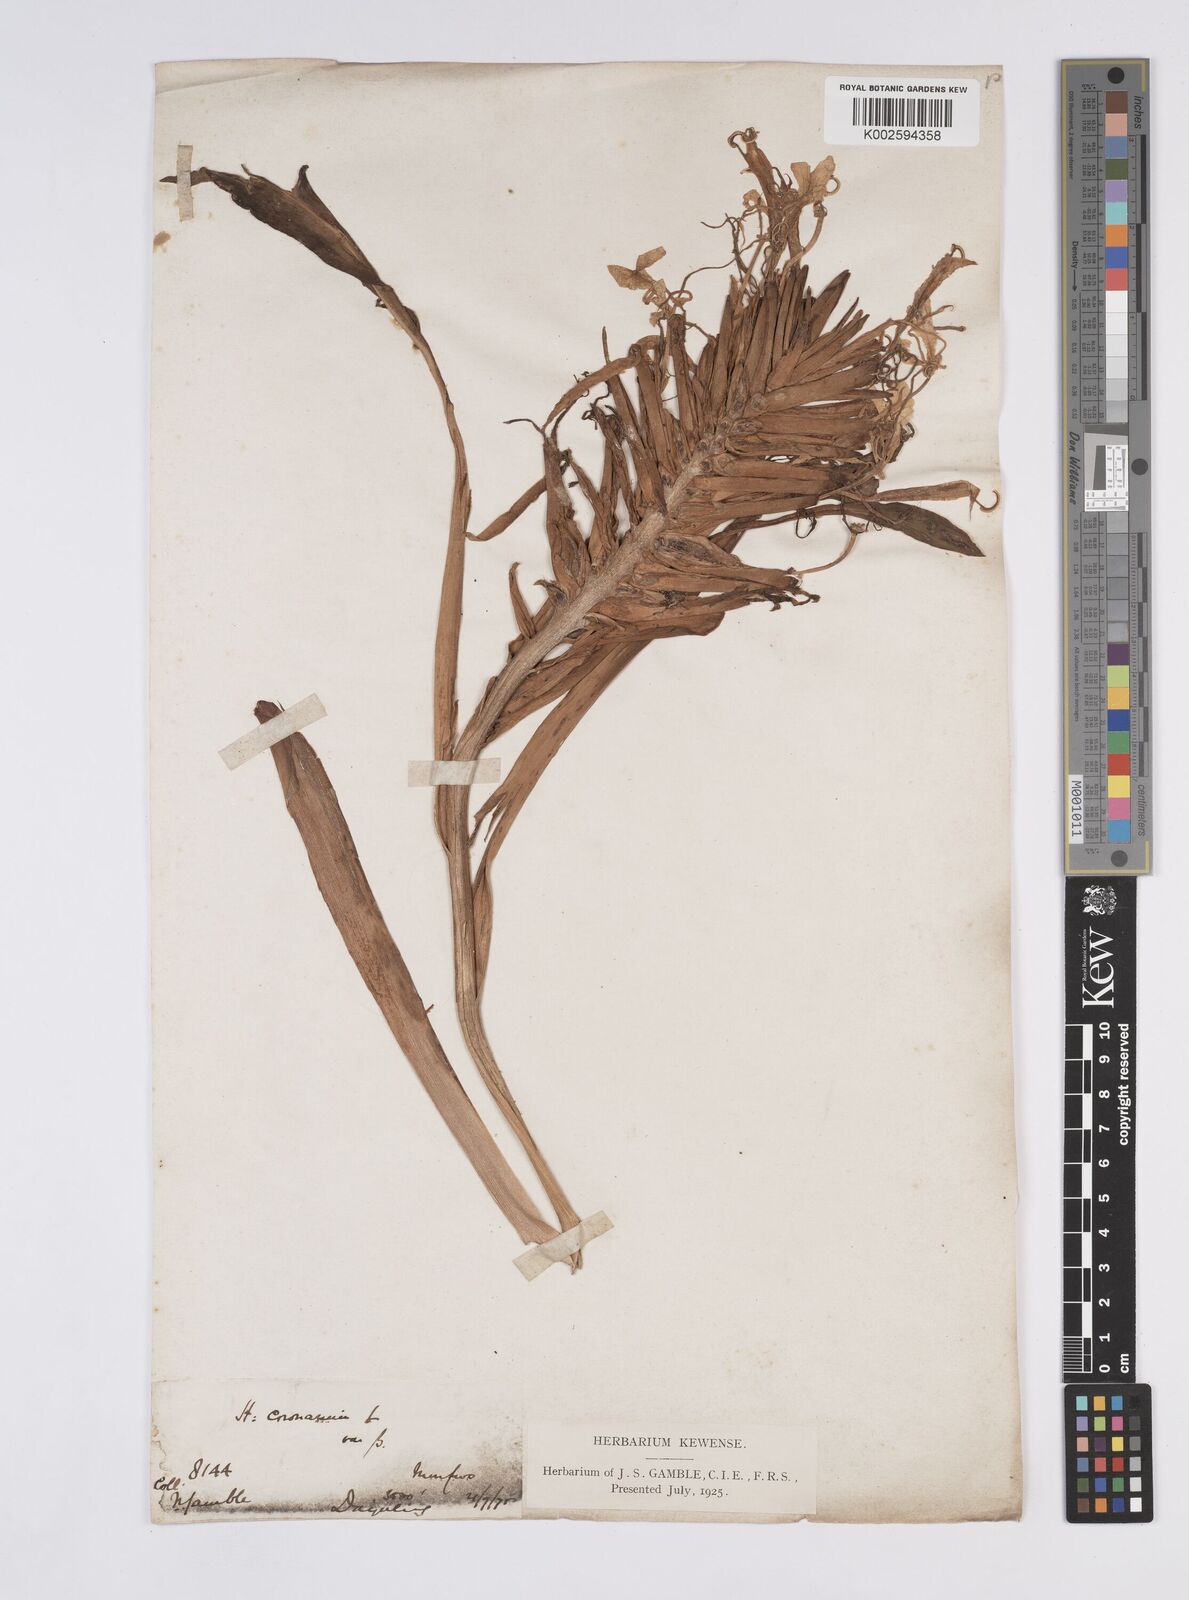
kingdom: Plantae
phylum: Tracheophyta
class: Liliopsida
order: Zingiberales
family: Zingiberaceae
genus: Hedychium
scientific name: Hedychium venustum
